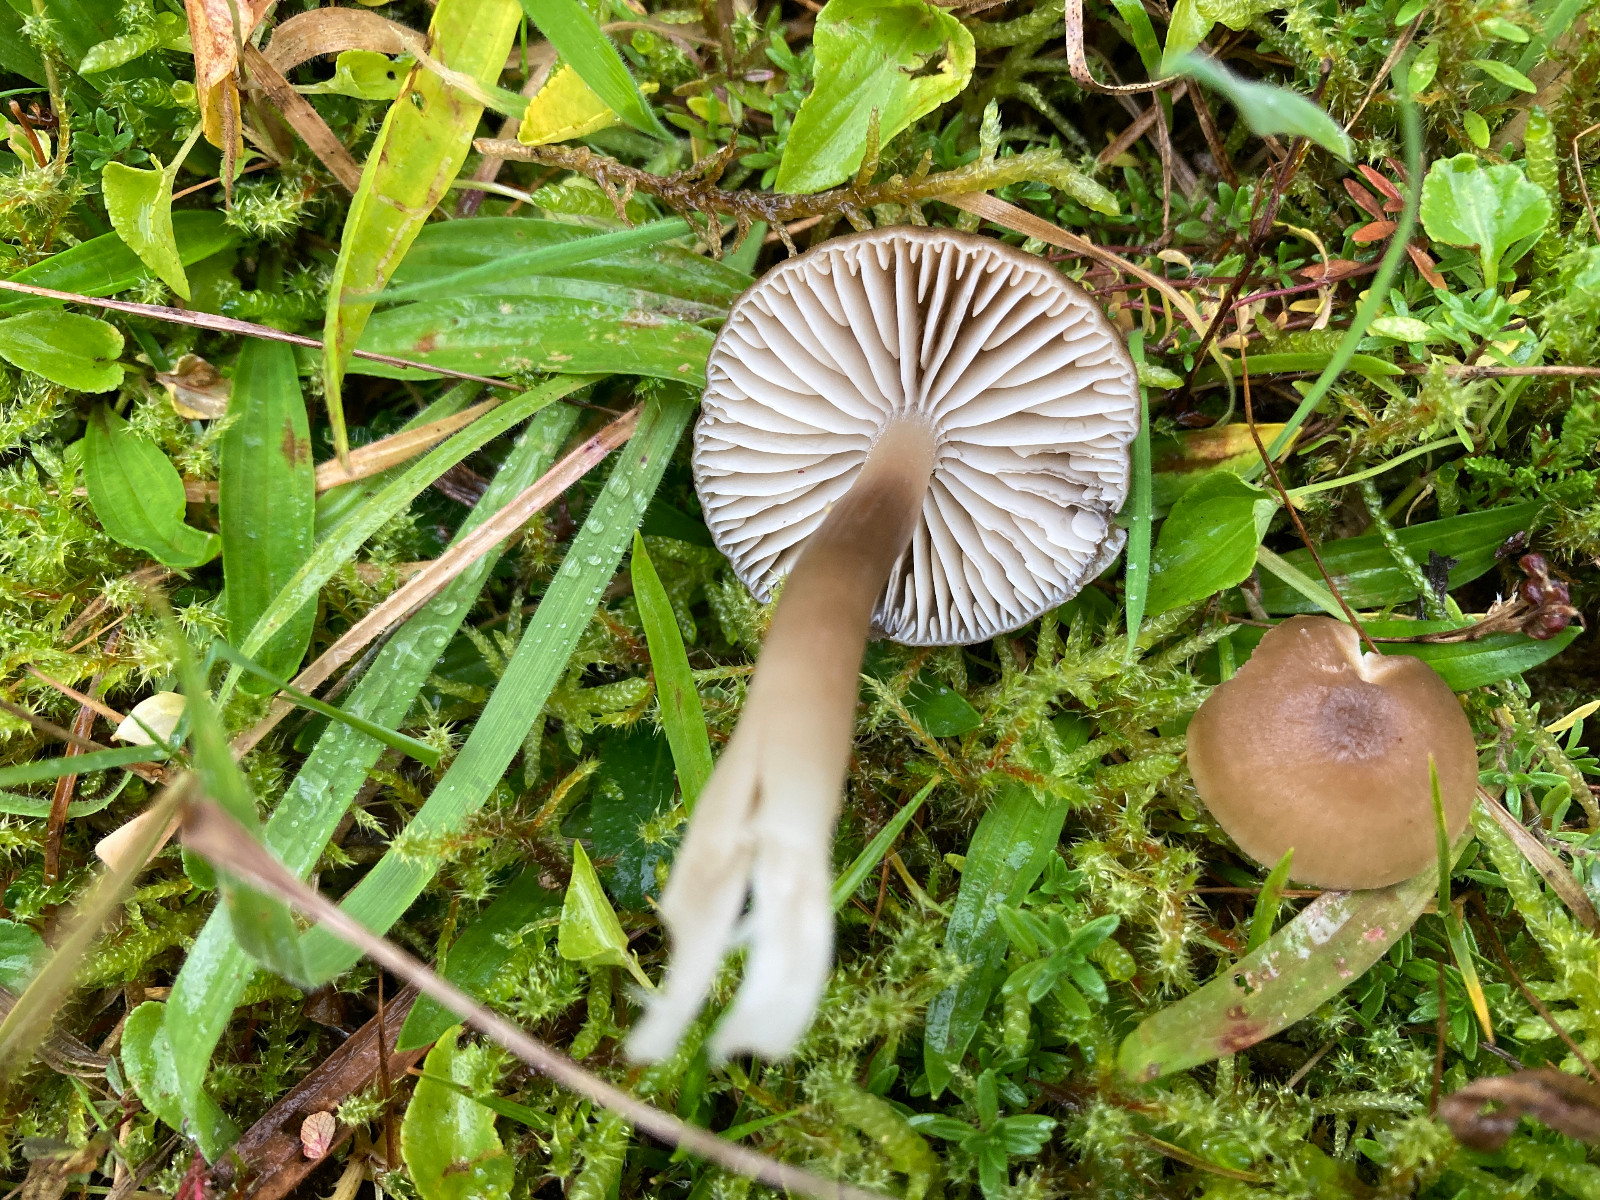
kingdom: Fungi
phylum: Basidiomycota
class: Agaricomycetes
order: Agaricales
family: Hygrophoraceae
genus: Neohygrocybe
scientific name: Neohygrocybe nitrata
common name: stinkende vokshat
